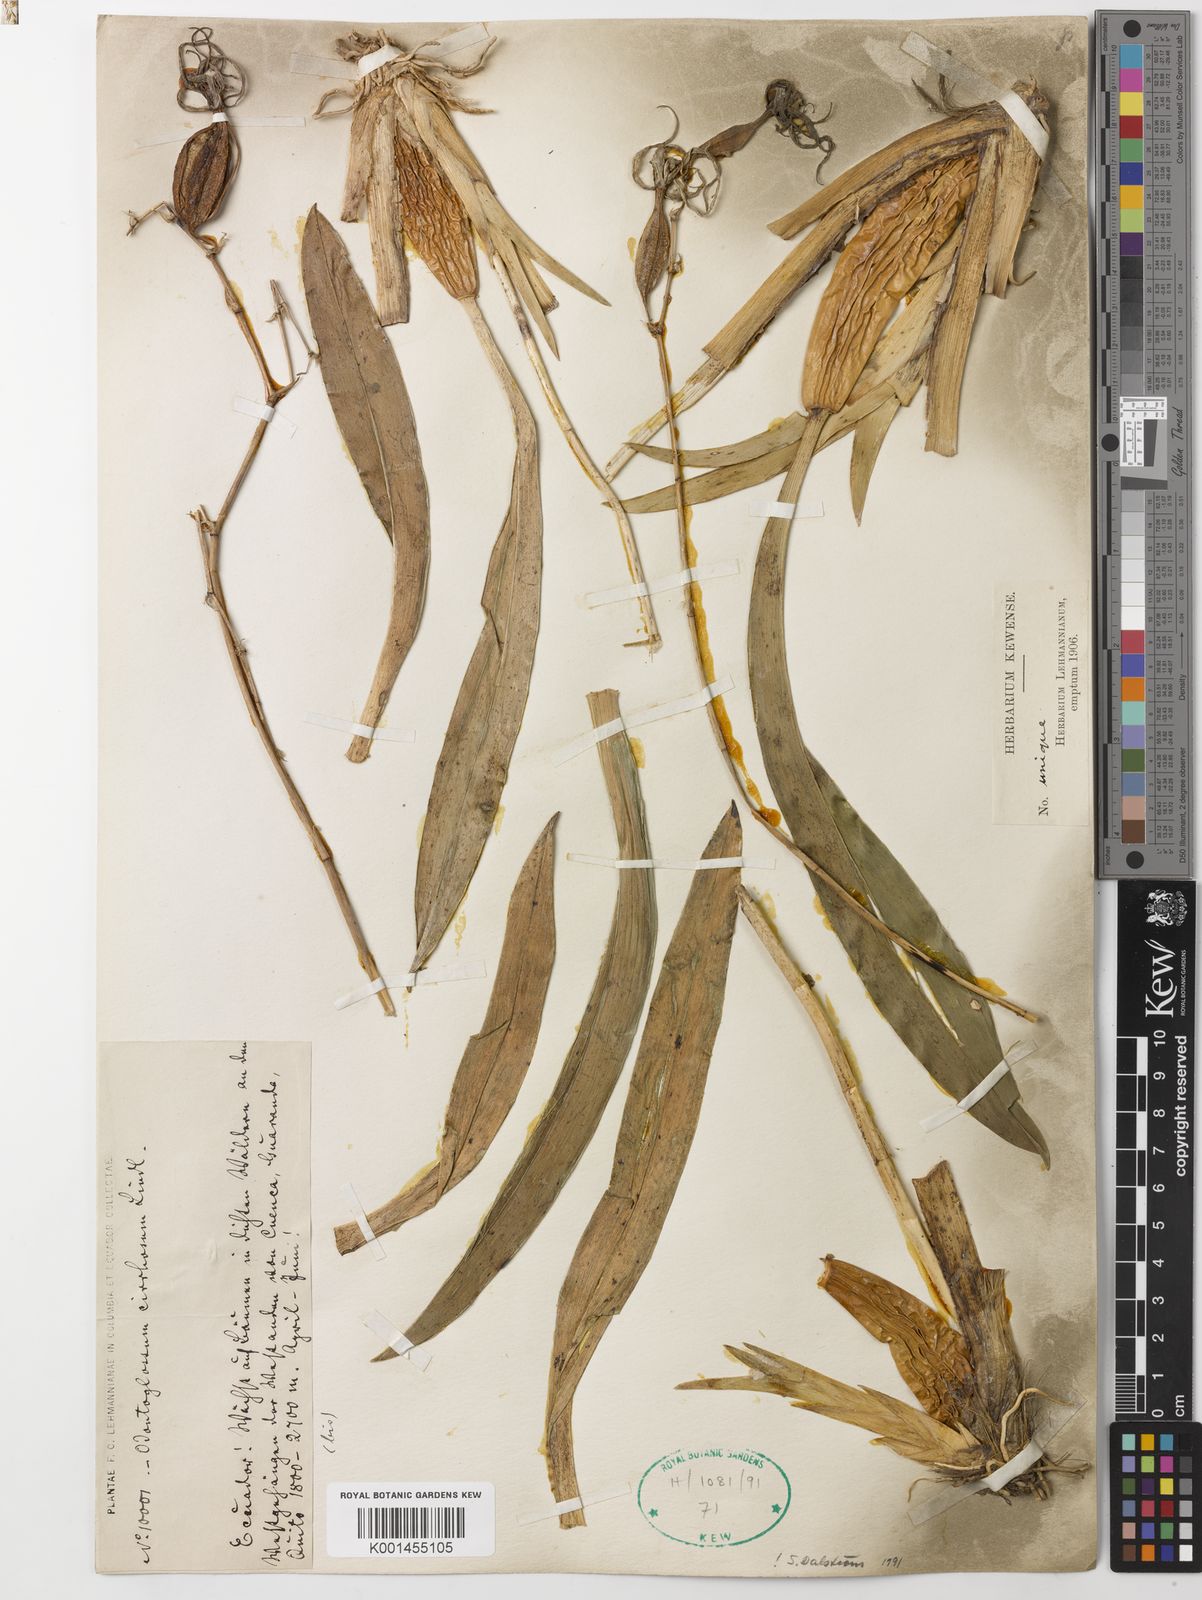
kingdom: Plantae
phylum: Tracheophyta
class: Liliopsida
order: Asparagales
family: Orchidaceae
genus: Oncidium
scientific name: Oncidium cirrhosum
